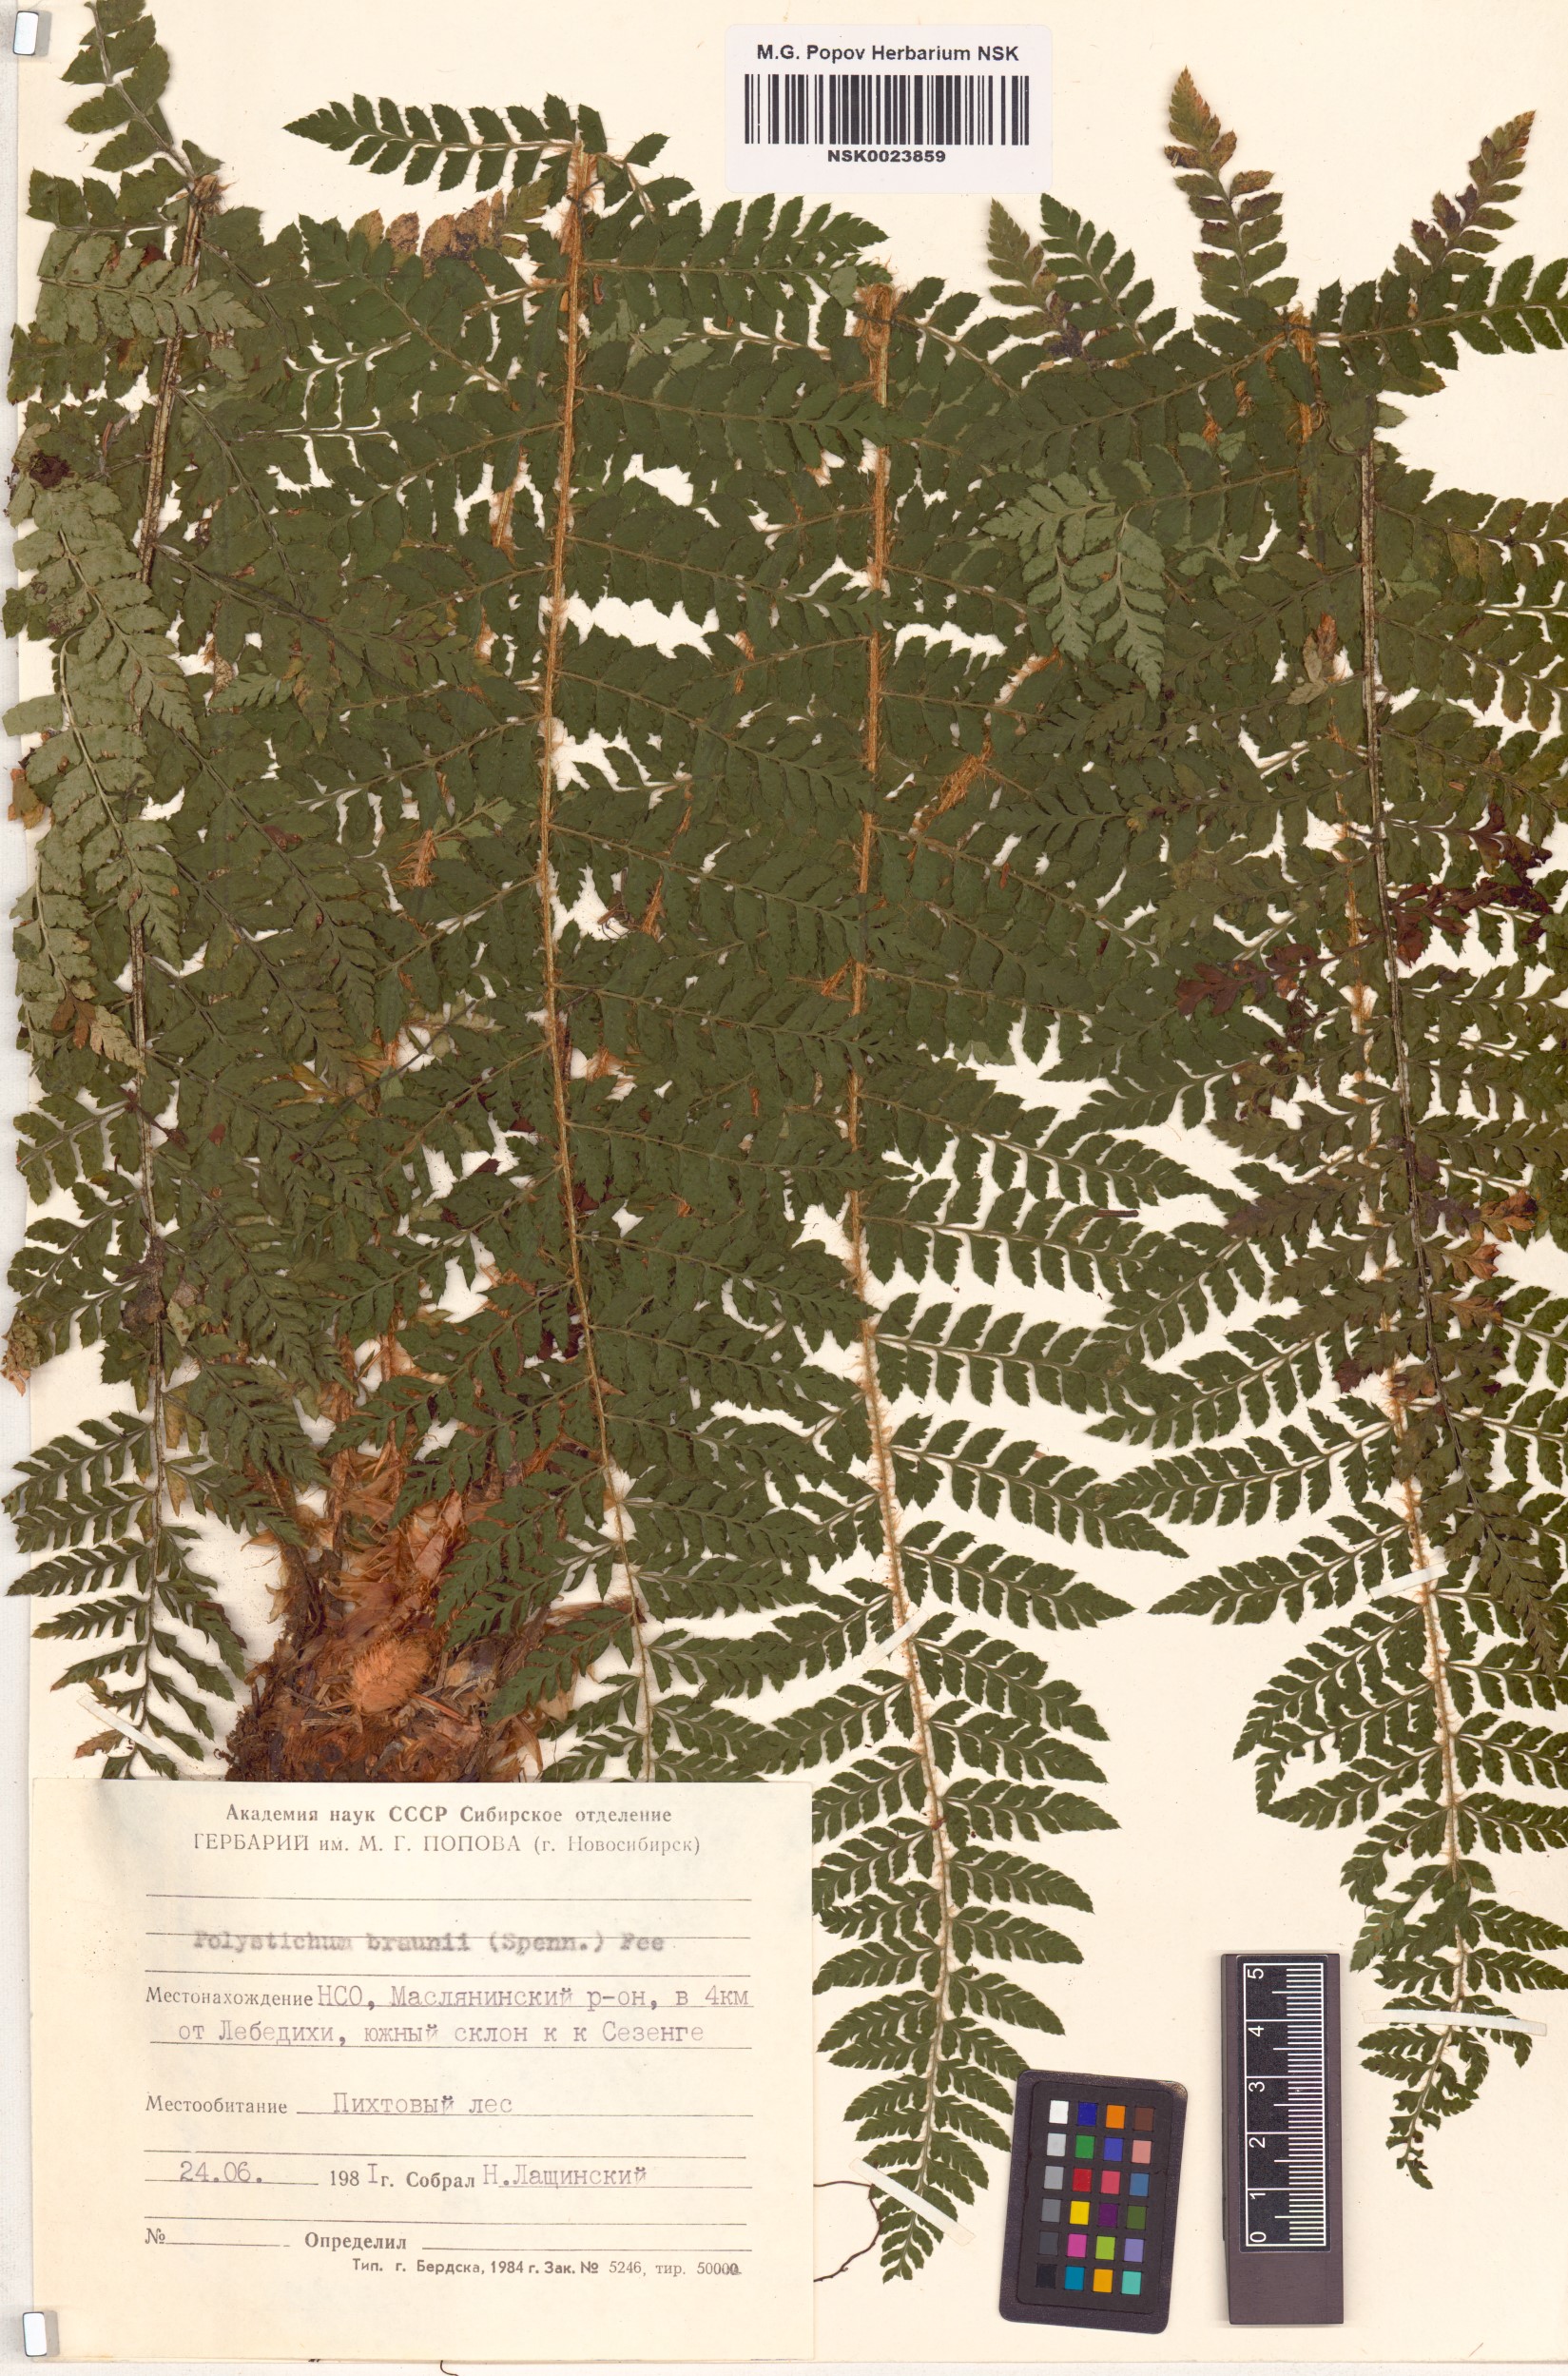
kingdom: Plantae
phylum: Tracheophyta
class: Polypodiopsida
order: Polypodiales
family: Dryopteridaceae
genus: Polystichum
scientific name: Polystichum braunii
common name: Braun's holly fern
